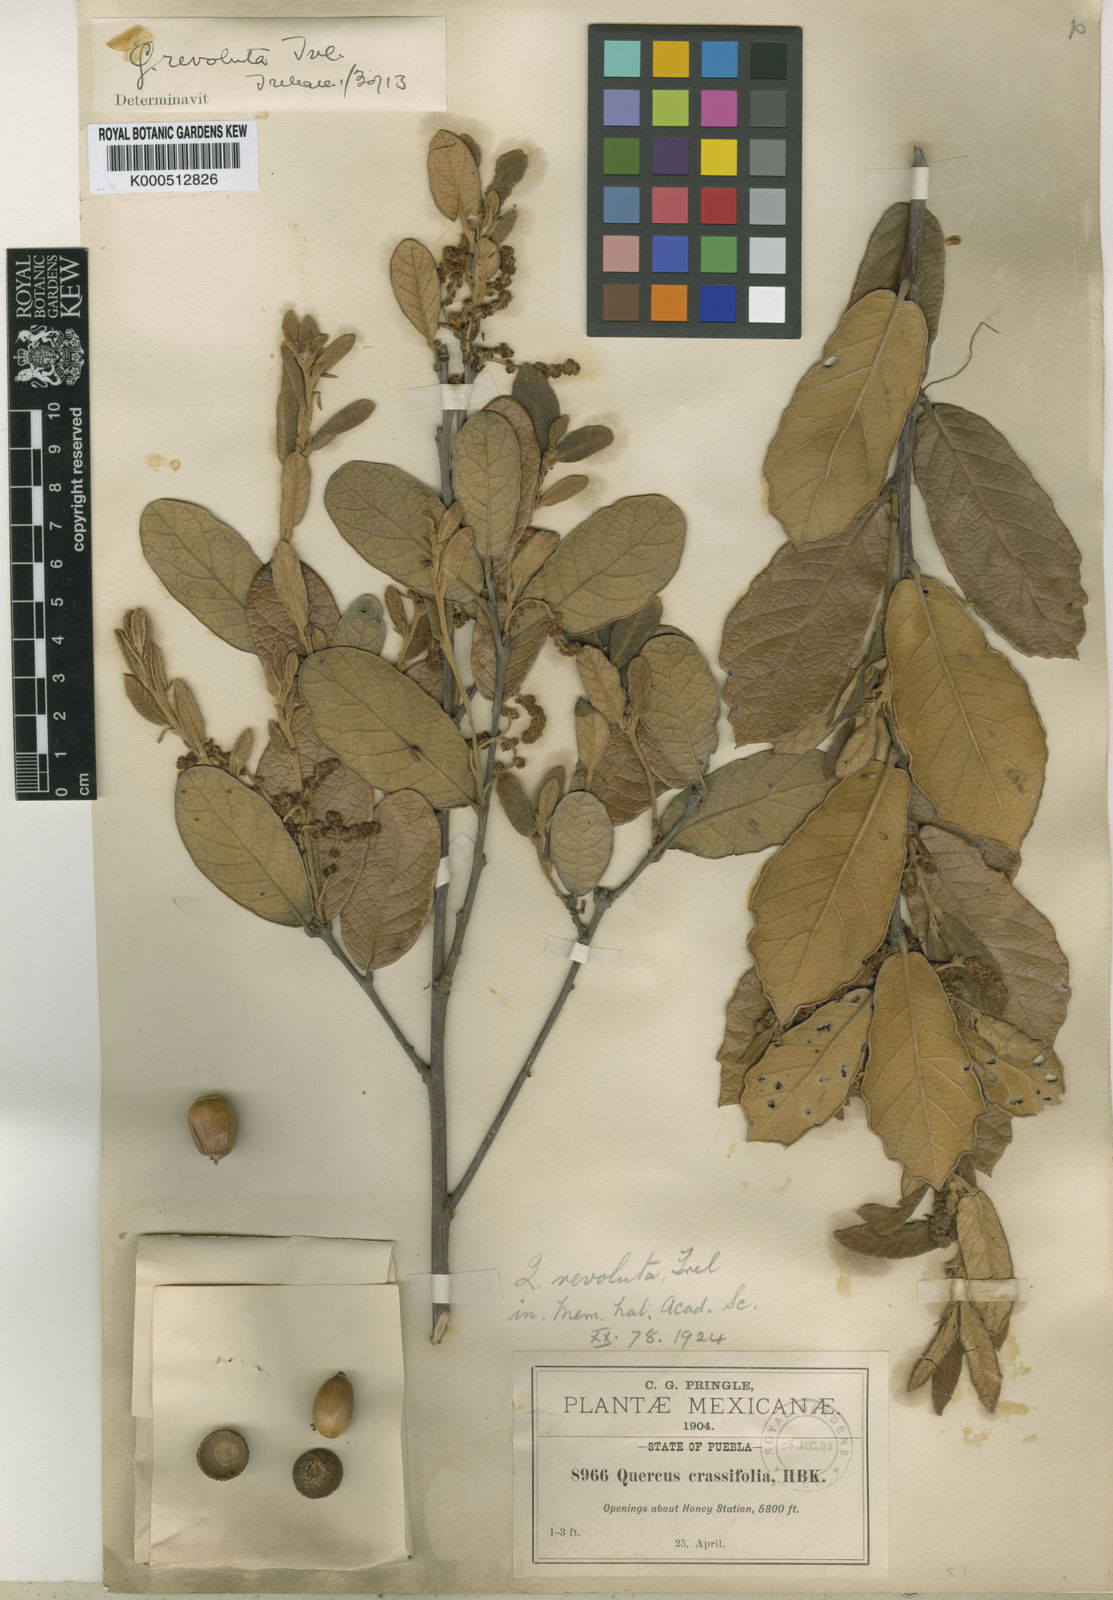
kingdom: Plantae
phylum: Tracheophyta
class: Magnoliopsida
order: Fagales
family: Fagaceae
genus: Quercus
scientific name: Quercus repanda
